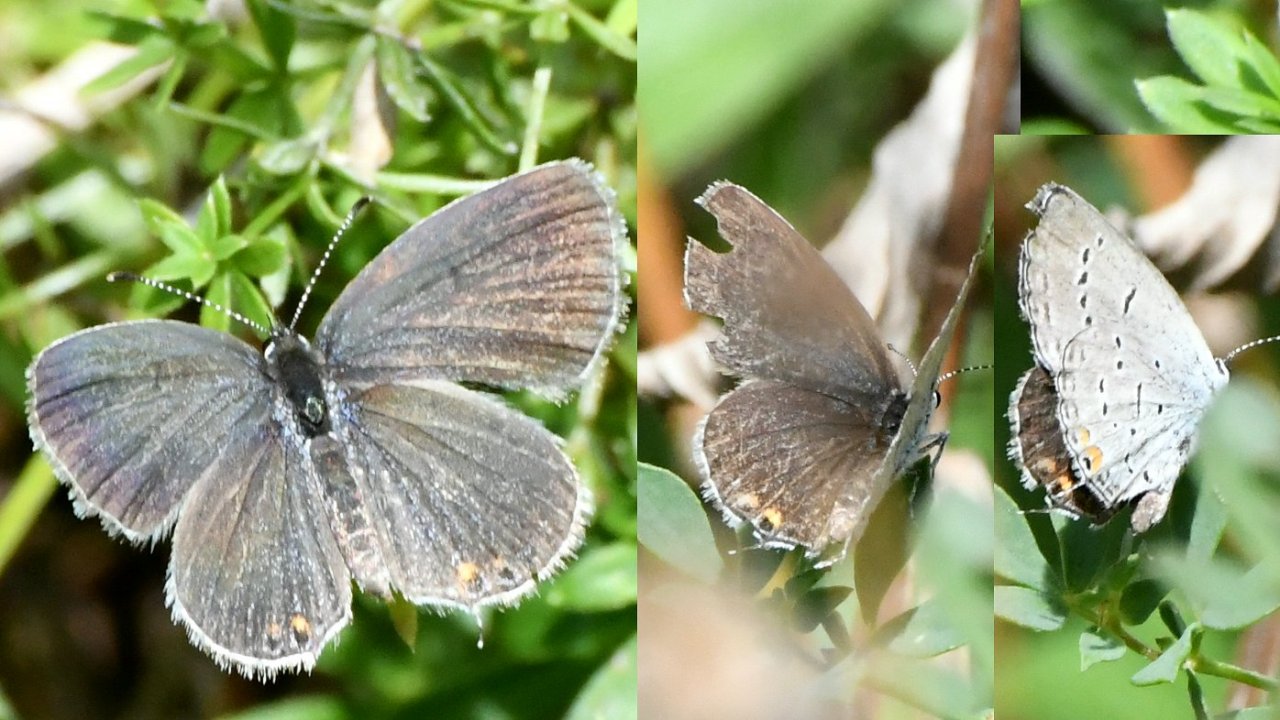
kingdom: Animalia
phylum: Arthropoda
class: Insecta
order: Lepidoptera
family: Lycaenidae
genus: Elkalyce
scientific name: Elkalyce comyntas
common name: Eastern Tailed-Blue
